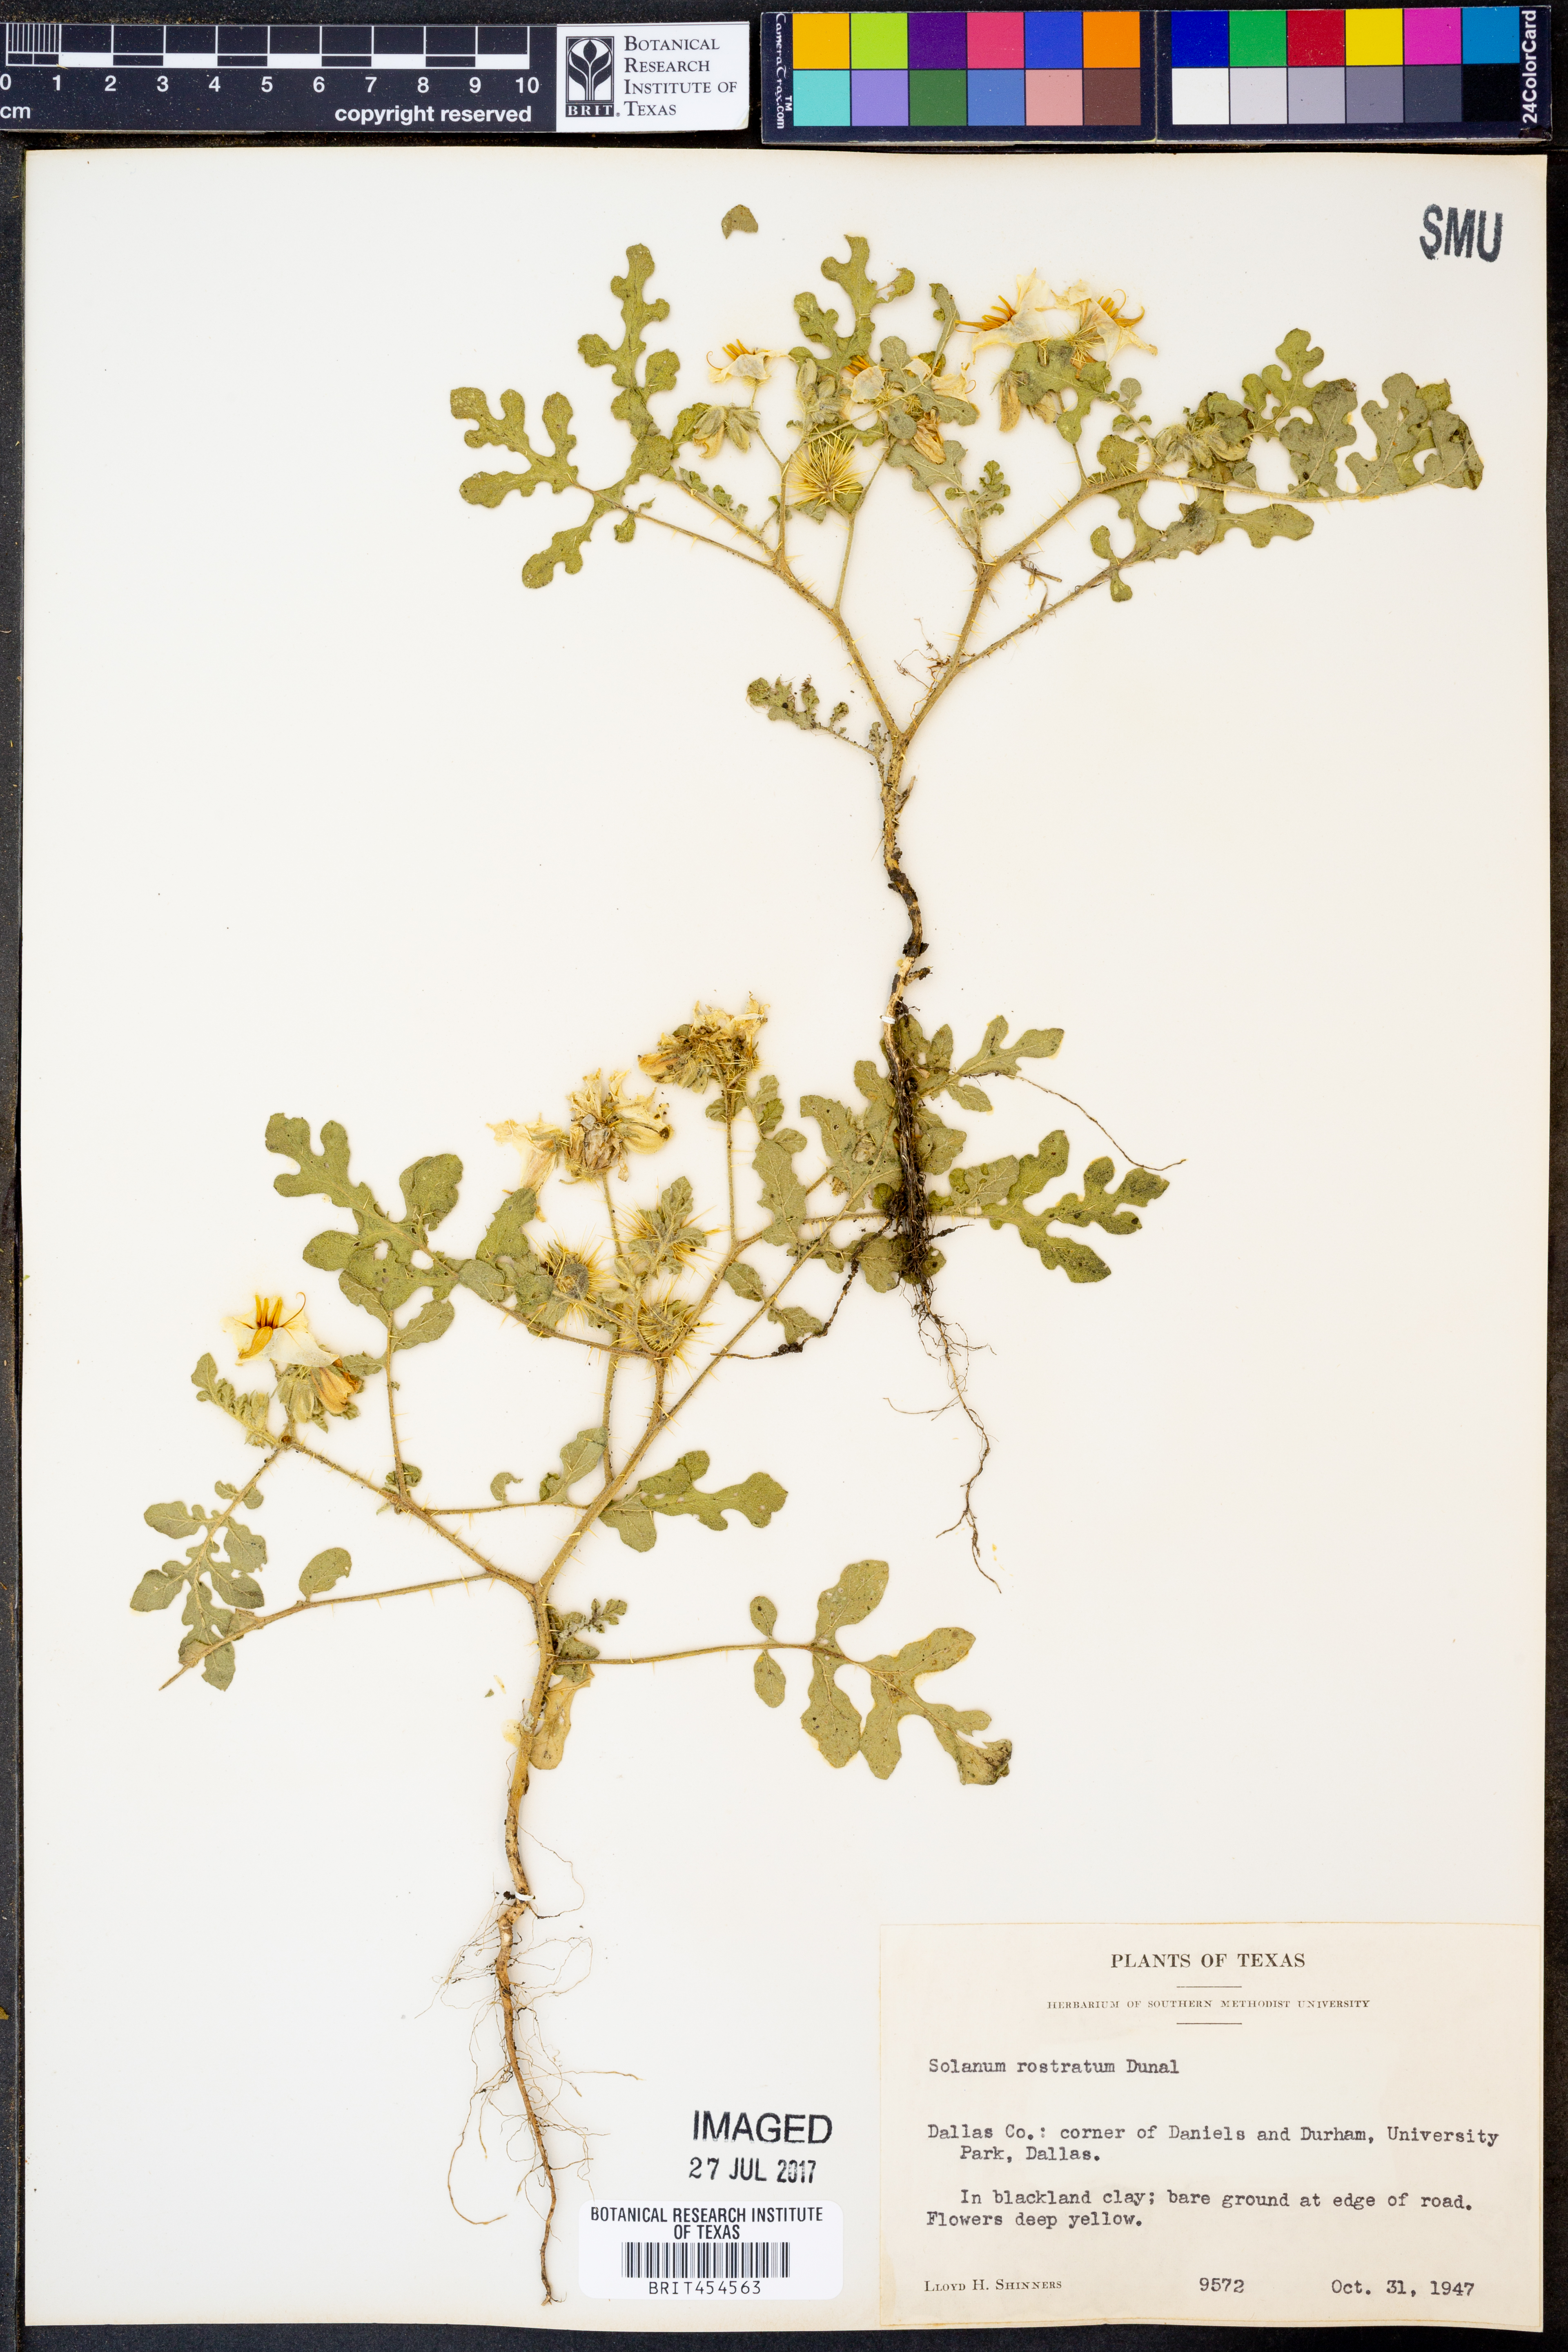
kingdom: Plantae
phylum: Tracheophyta
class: Magnoliopsida
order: Solanales
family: Solanaceae
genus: Solanum
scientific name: Solanum angustifolium
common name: Buffalobur nightshade
